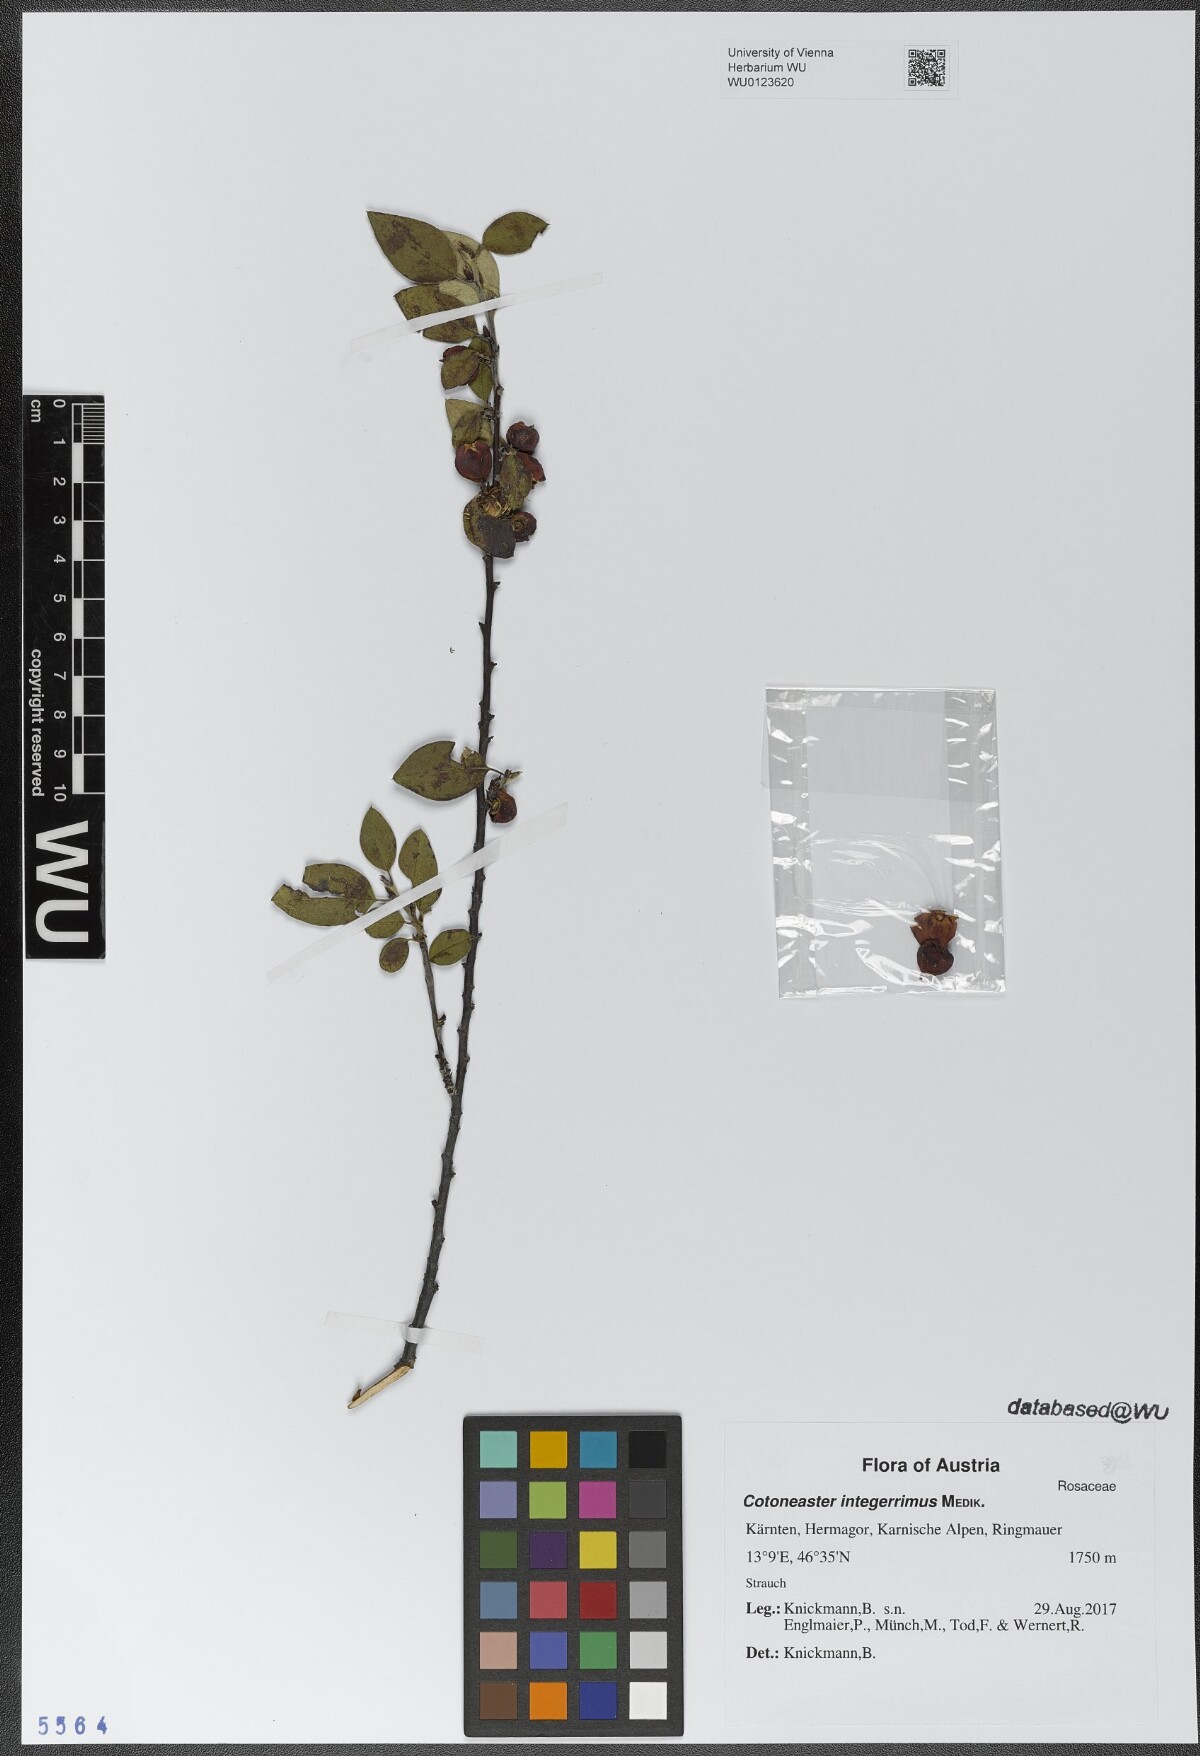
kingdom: Plantae
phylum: Tracheophyta
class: Magnoliopsida
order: Rosales
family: Rosaceae
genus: Cotoneaster
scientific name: Cotoneaster integerrimus
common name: Wild cotoneaster
